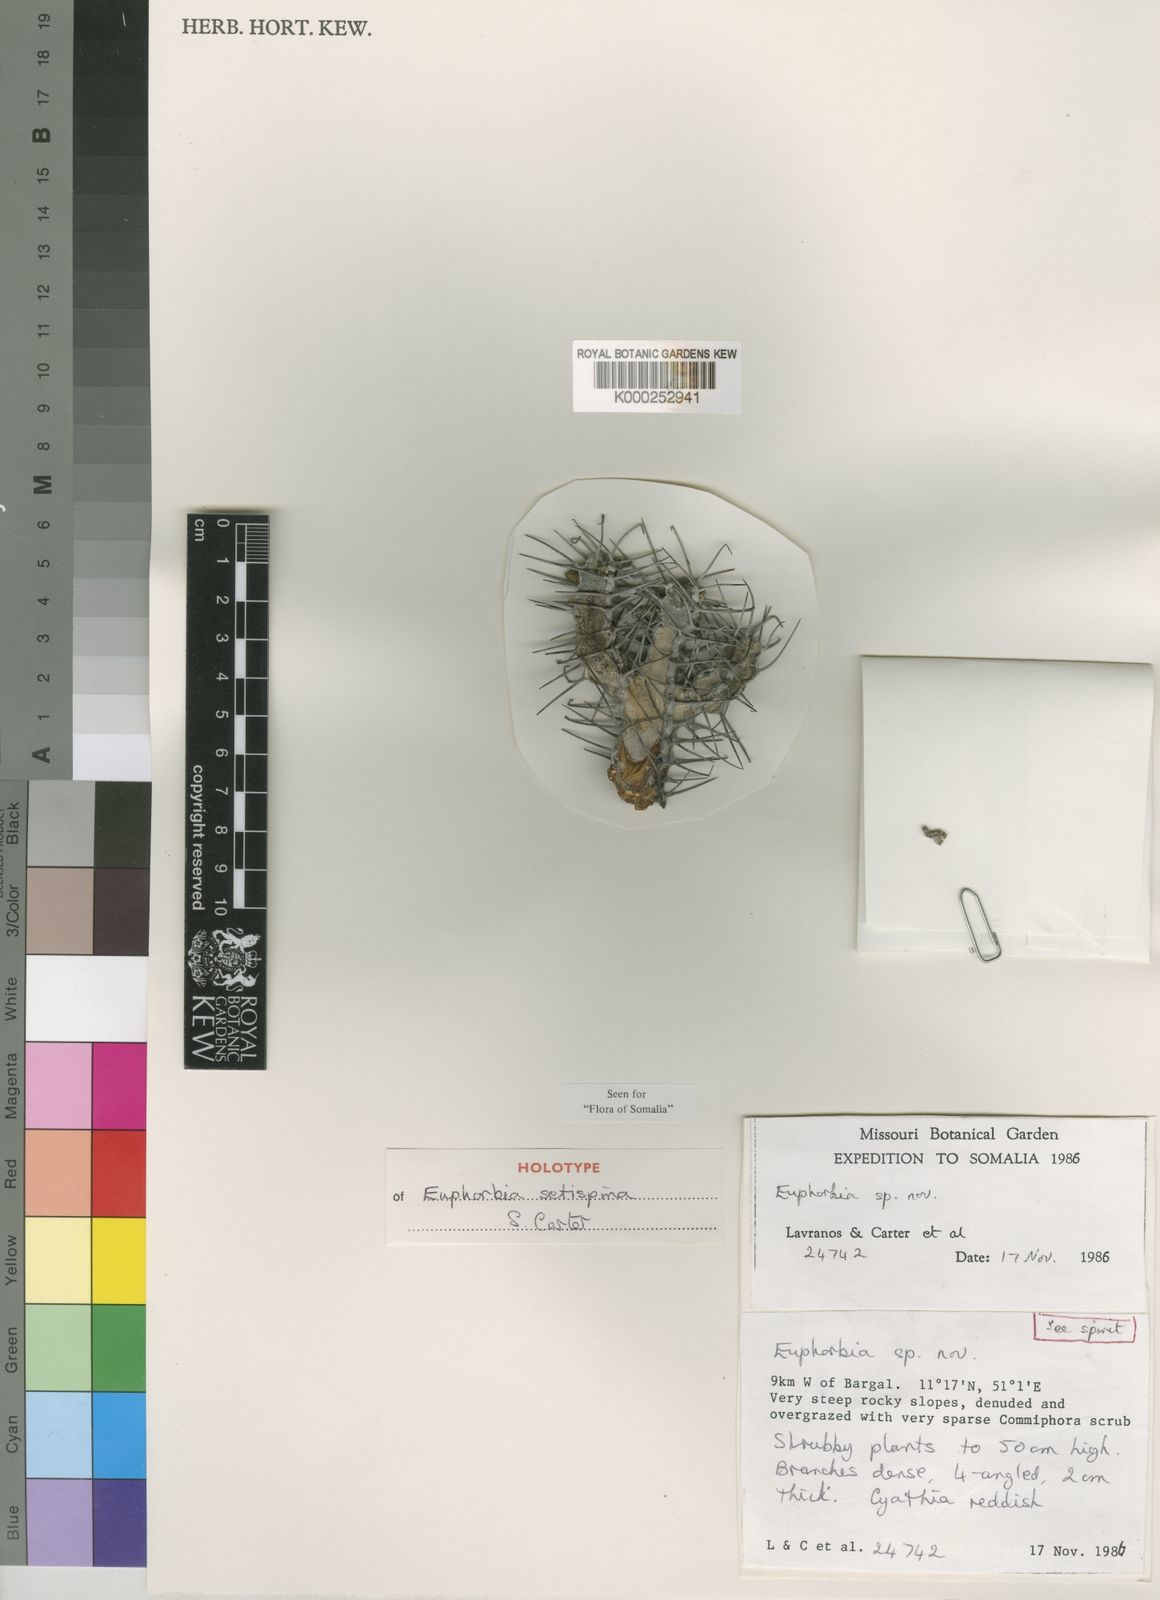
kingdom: Plantae
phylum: Tracheophyta
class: Magnoliopsida
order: Malpighiales
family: Euphorbiaceae
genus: Euphorbia
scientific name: Euphorbia setispina
